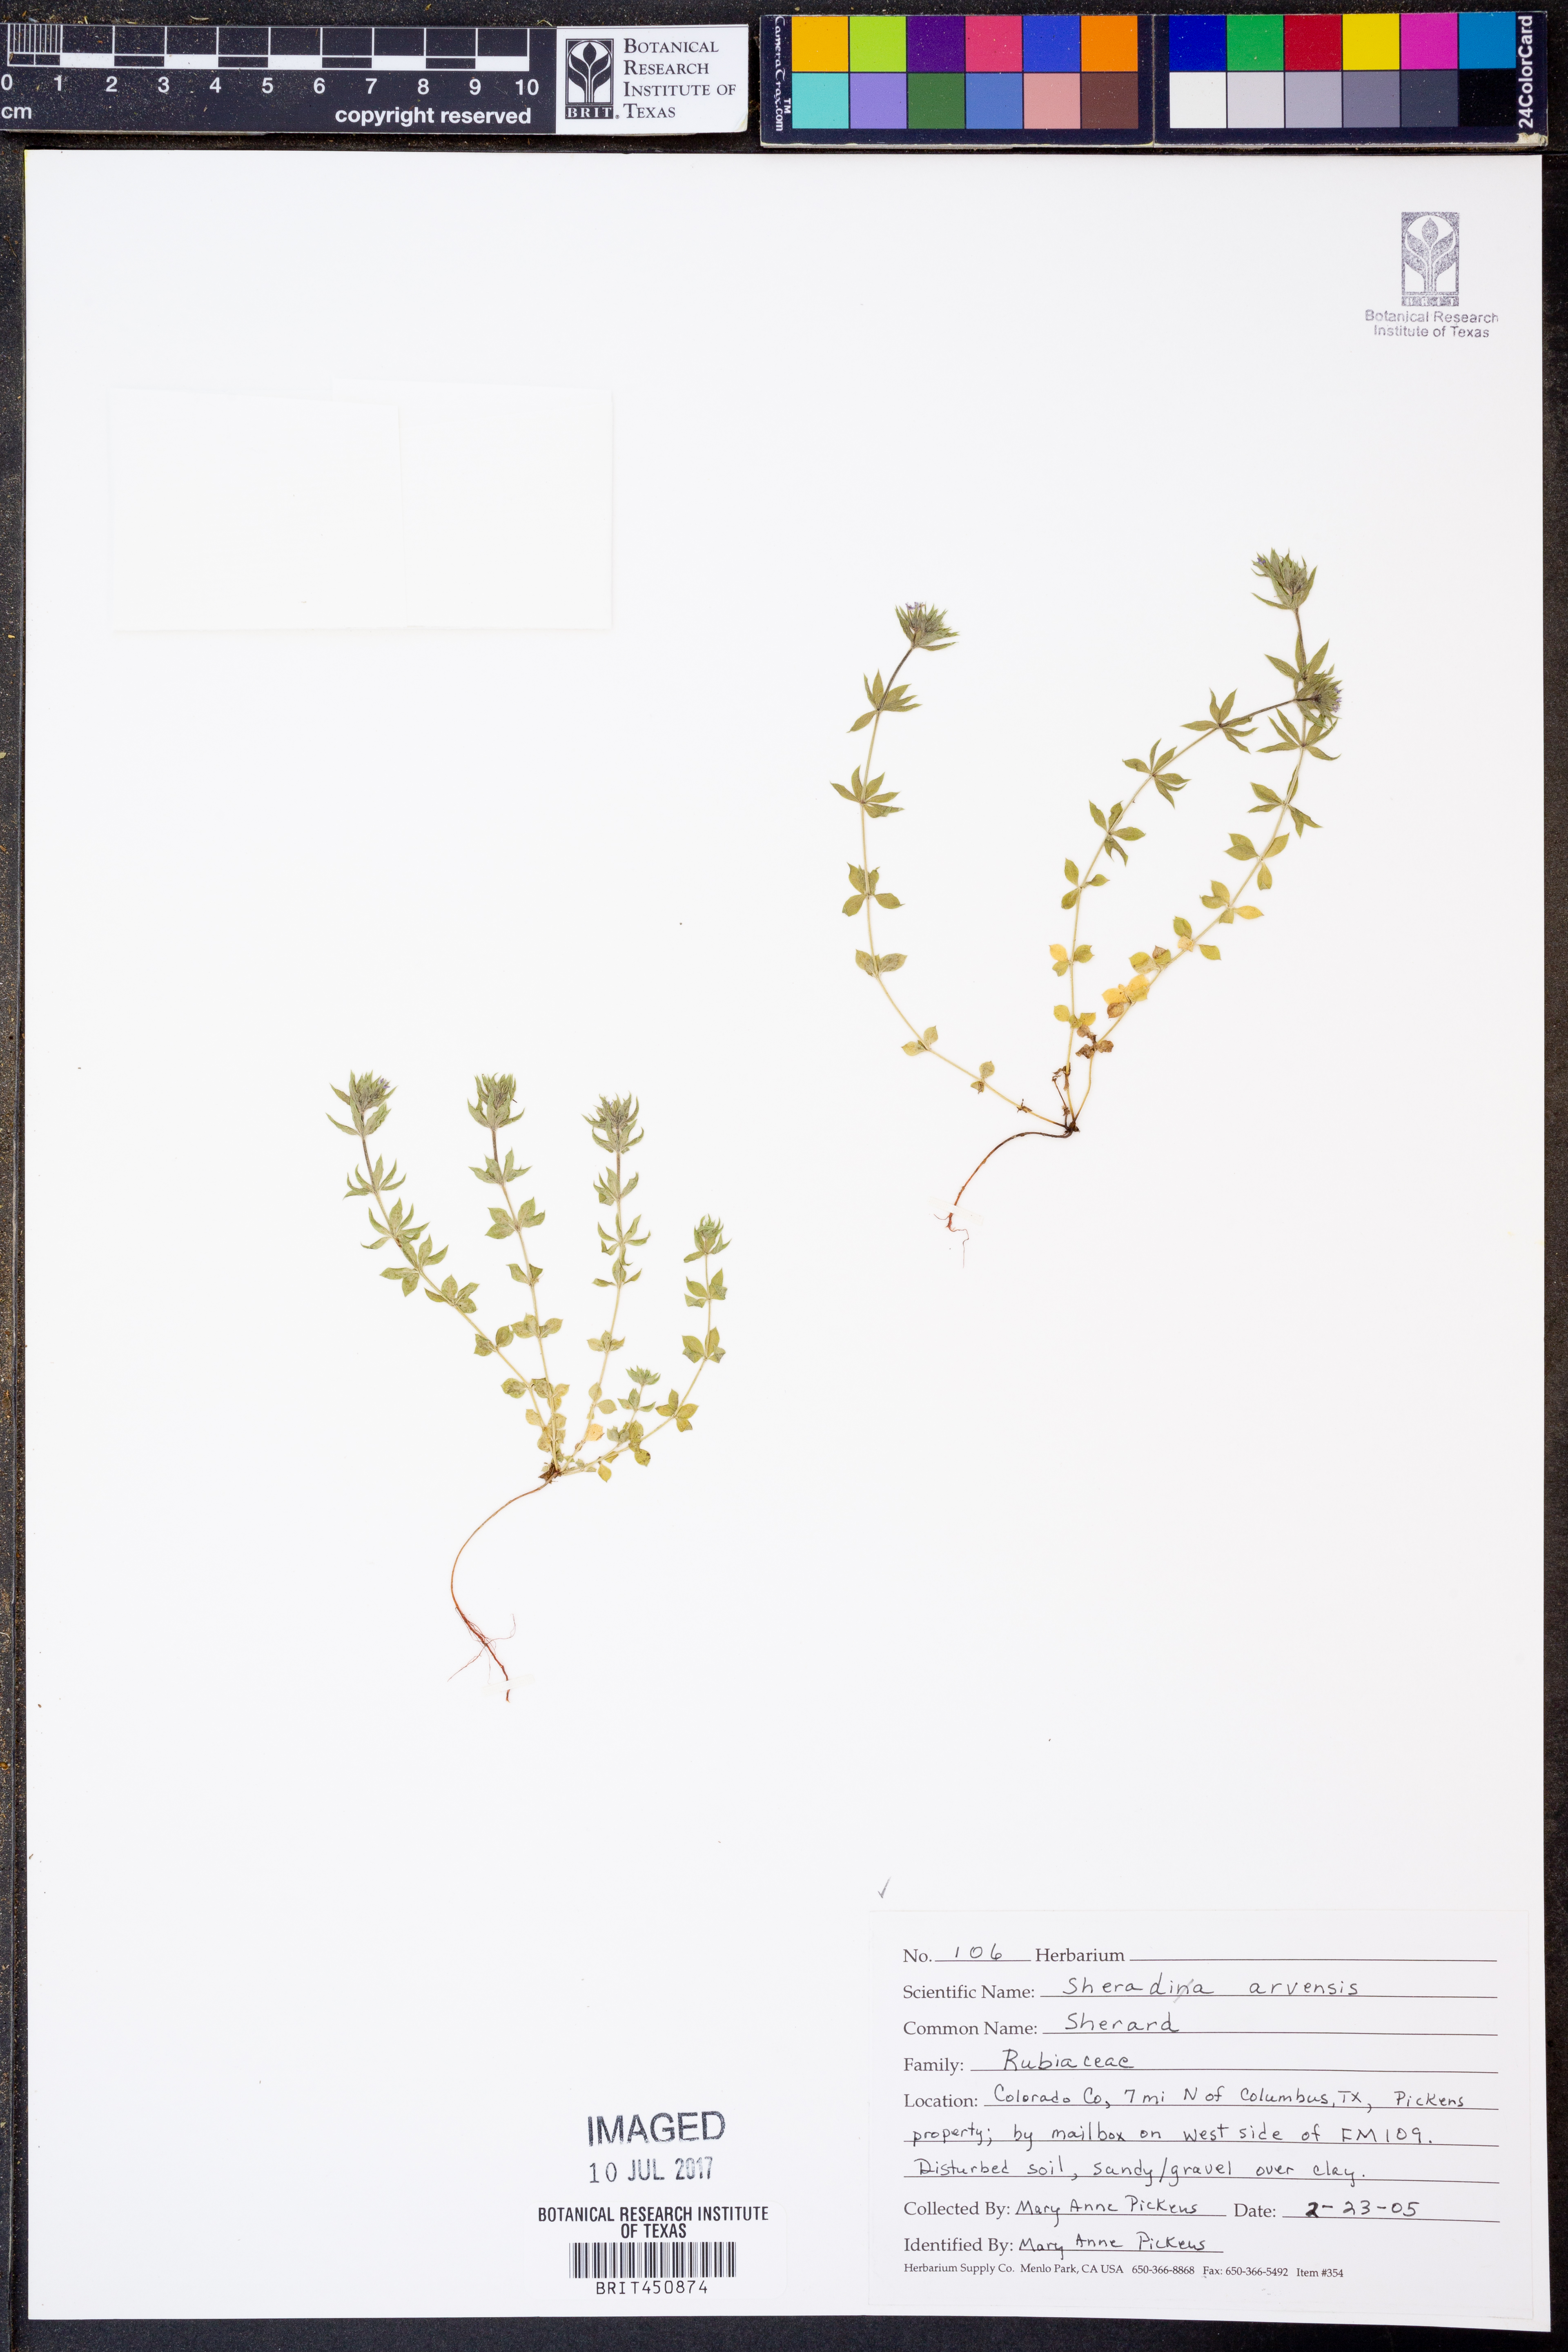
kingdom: Plantae
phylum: Tracheophyta
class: Magnoliopsida
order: Gentianales
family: Rubiaceae
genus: Sherardia
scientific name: Sherardia arvensis
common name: Field madder
